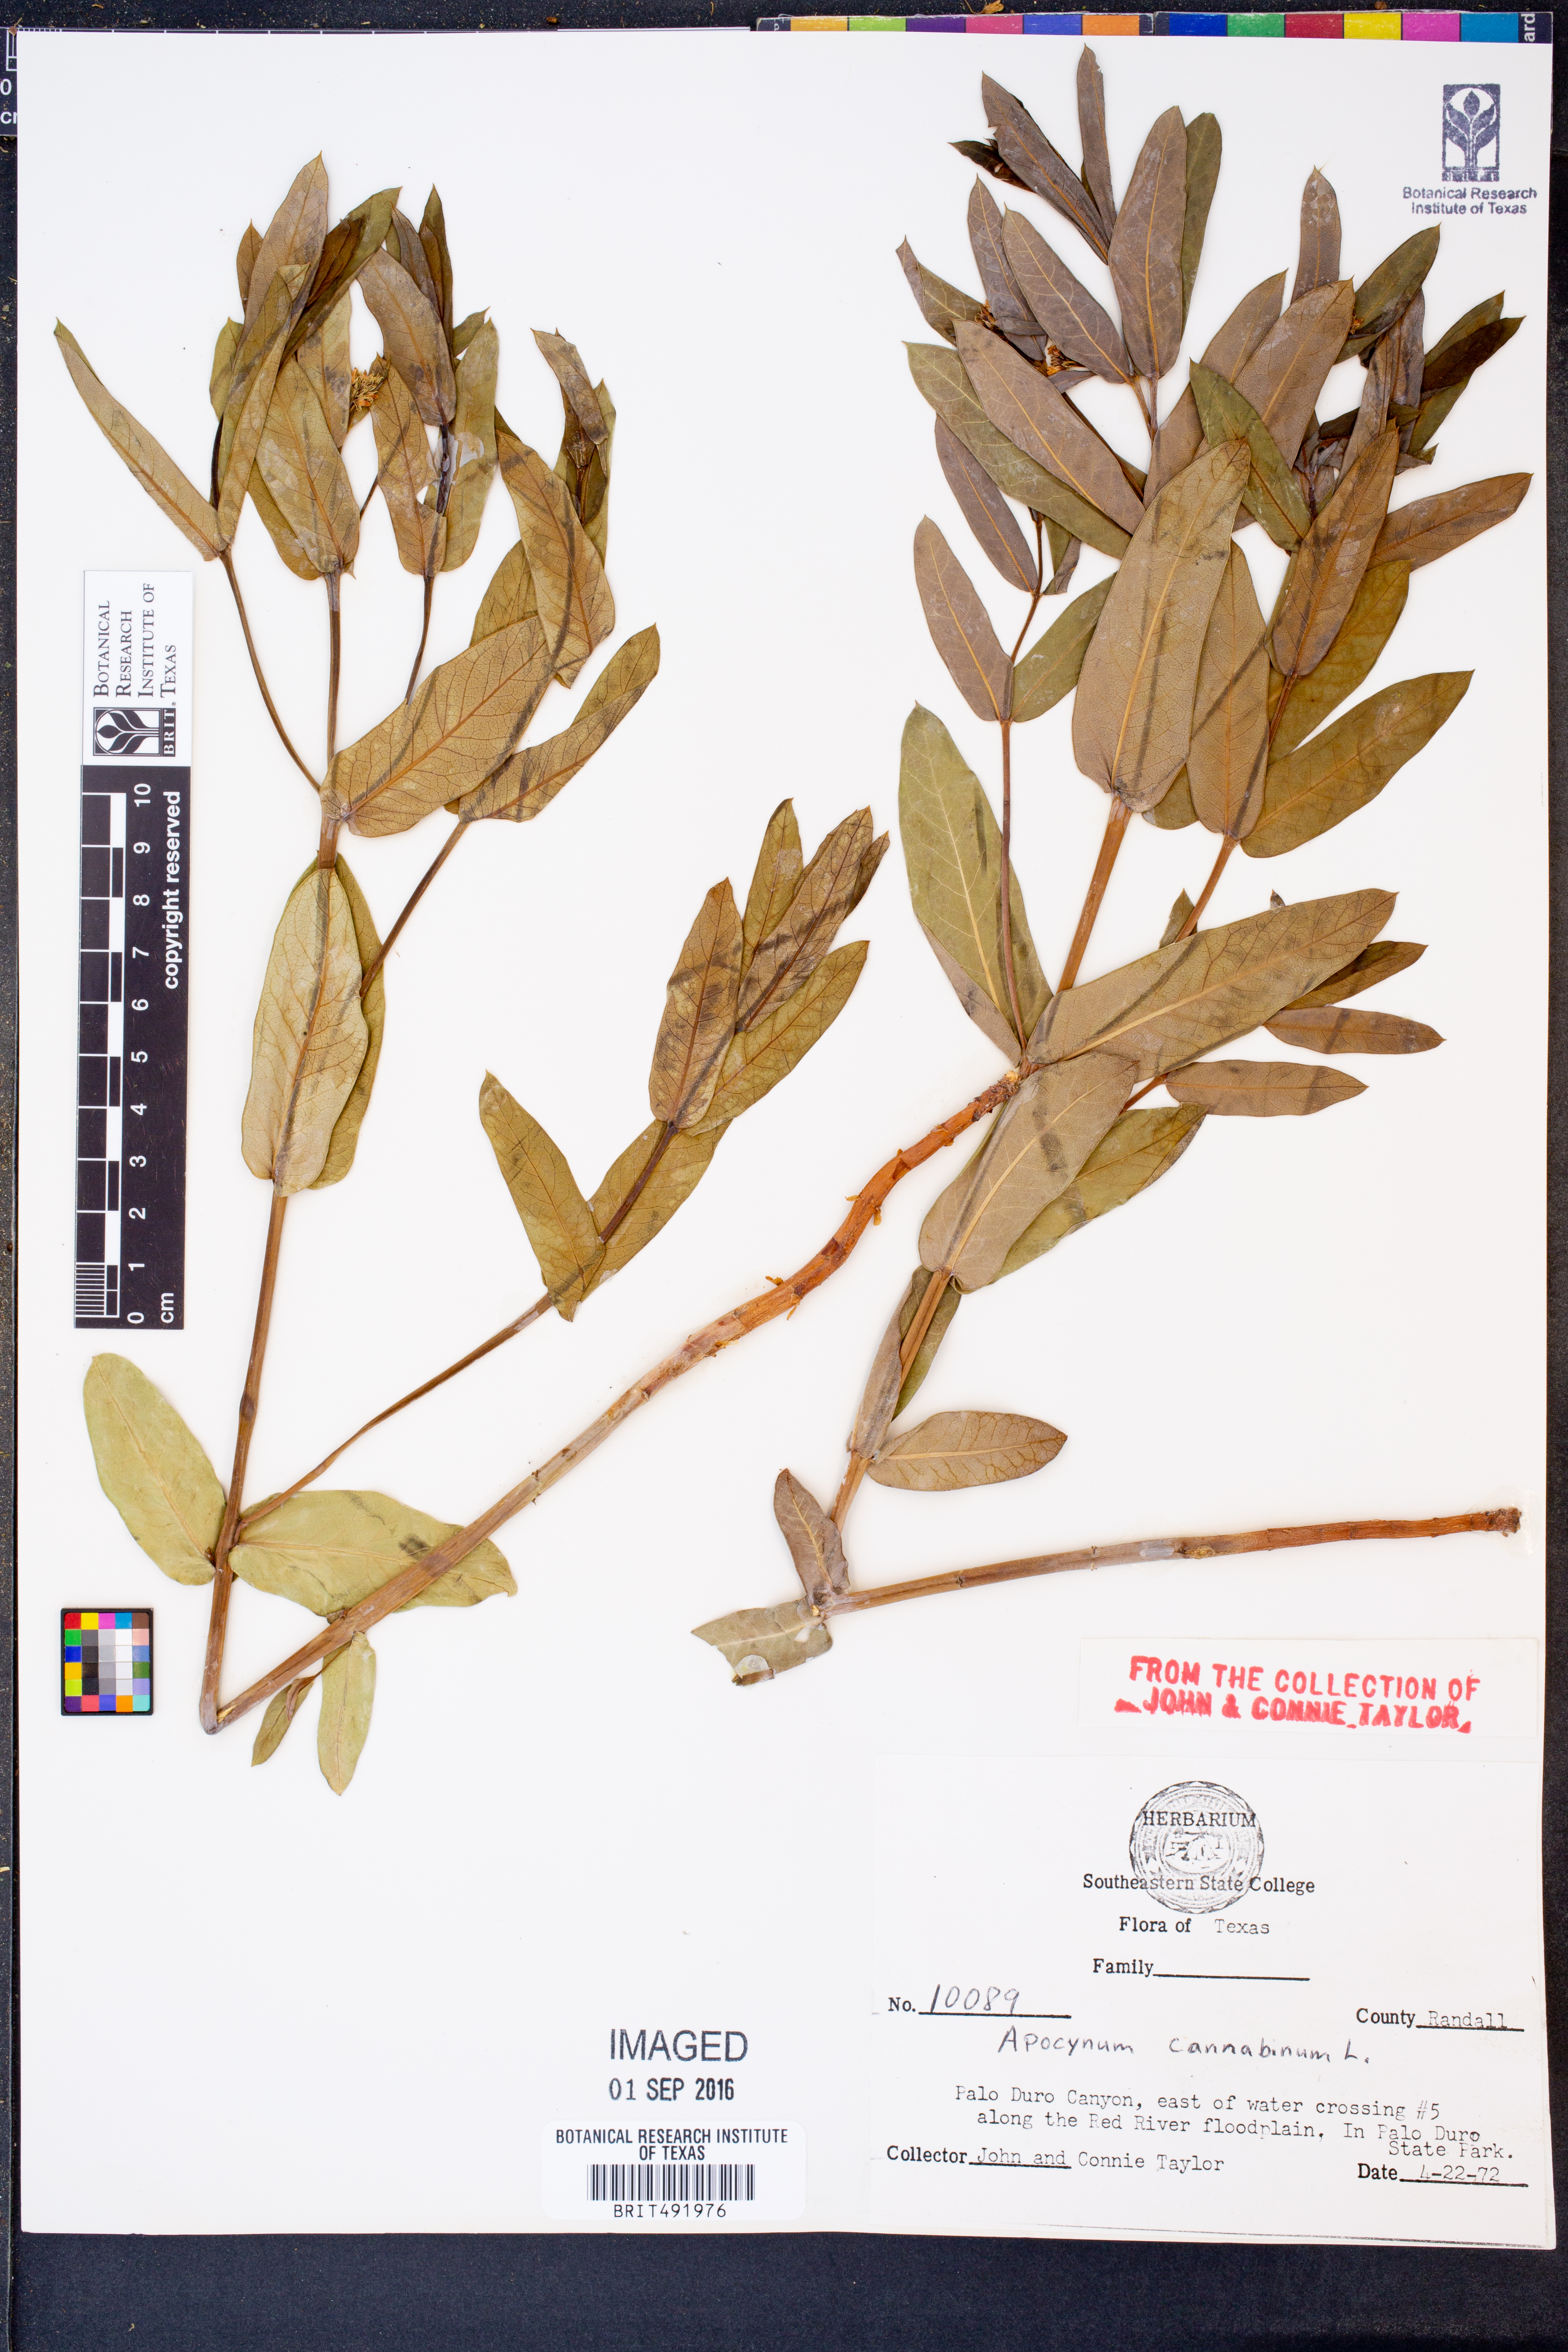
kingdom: Plantae
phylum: Tracheophyta
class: Magnoliopsida
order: Gentianales
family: Apocynaceae
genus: Apocynum
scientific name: Apocynum cannabinum
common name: Hemp dogbane
